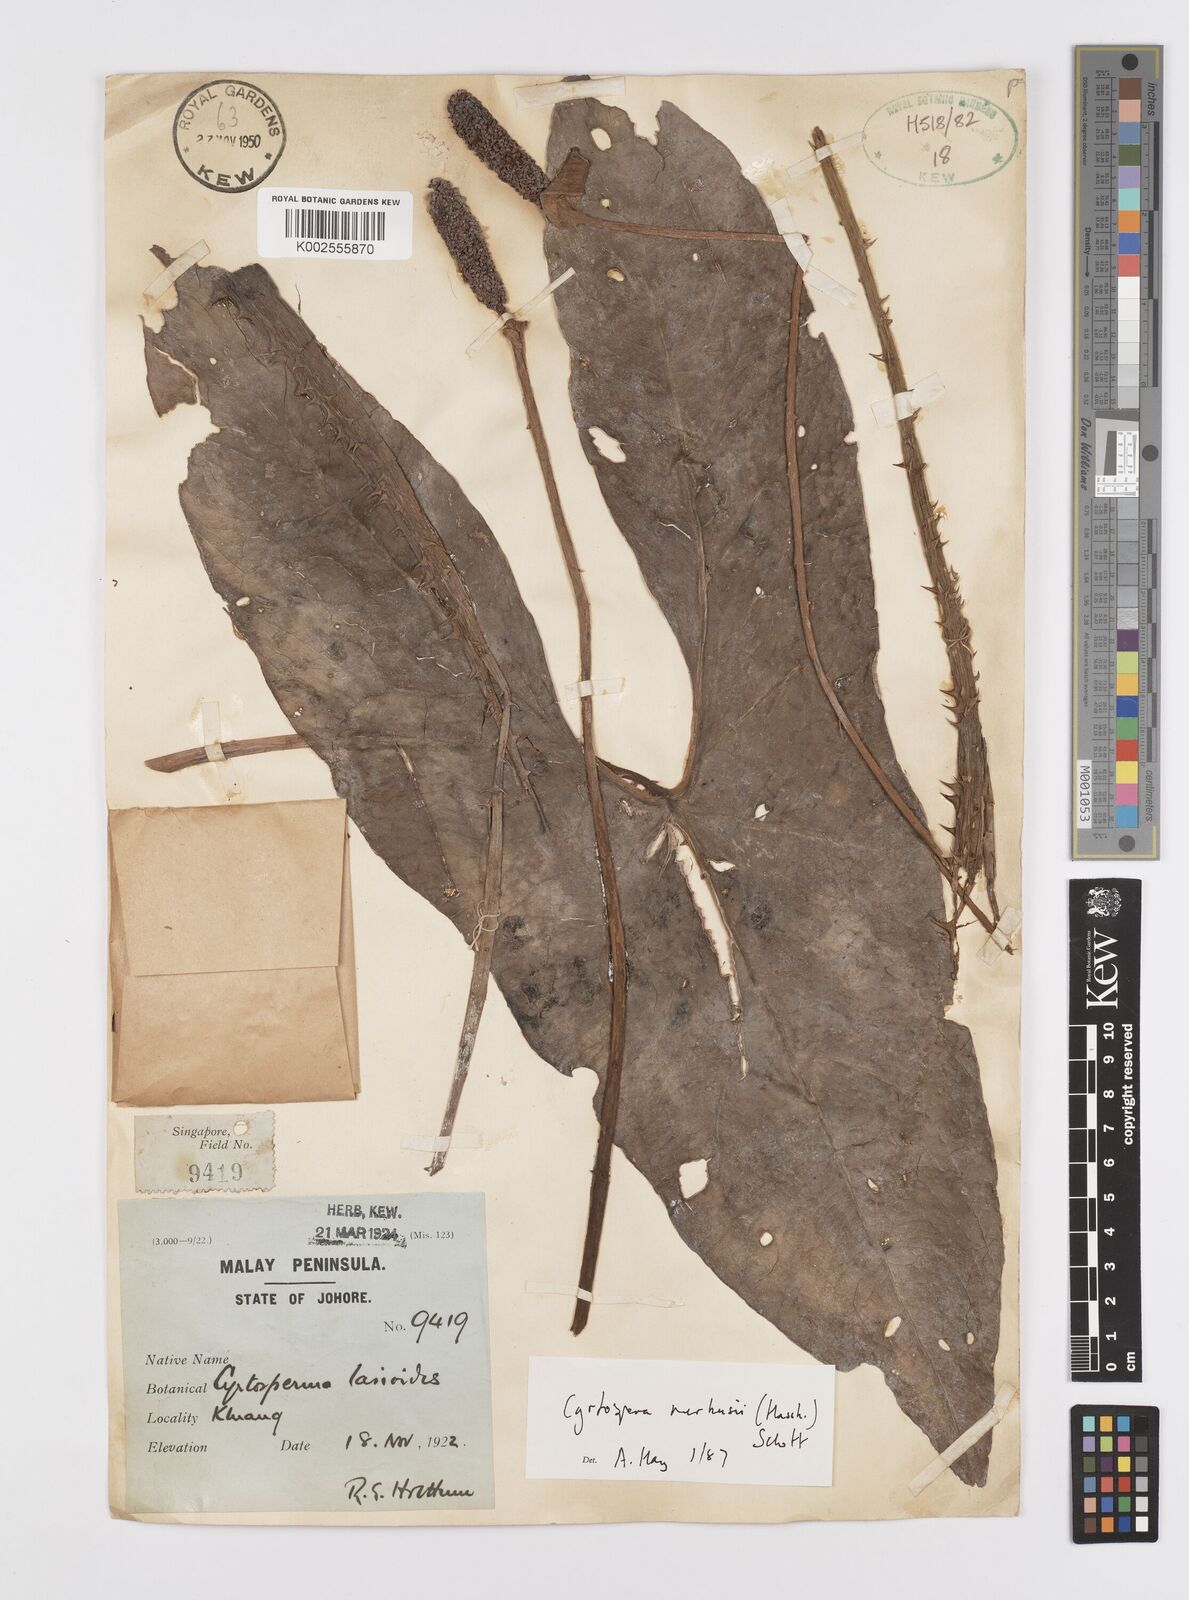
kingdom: Plantae
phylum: Tracheophyta
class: Liliopsida
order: Alismatales
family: Araceae
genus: Cyrtosperma
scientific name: Cyrtosperma merkusii
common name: Giant swamp-taro
